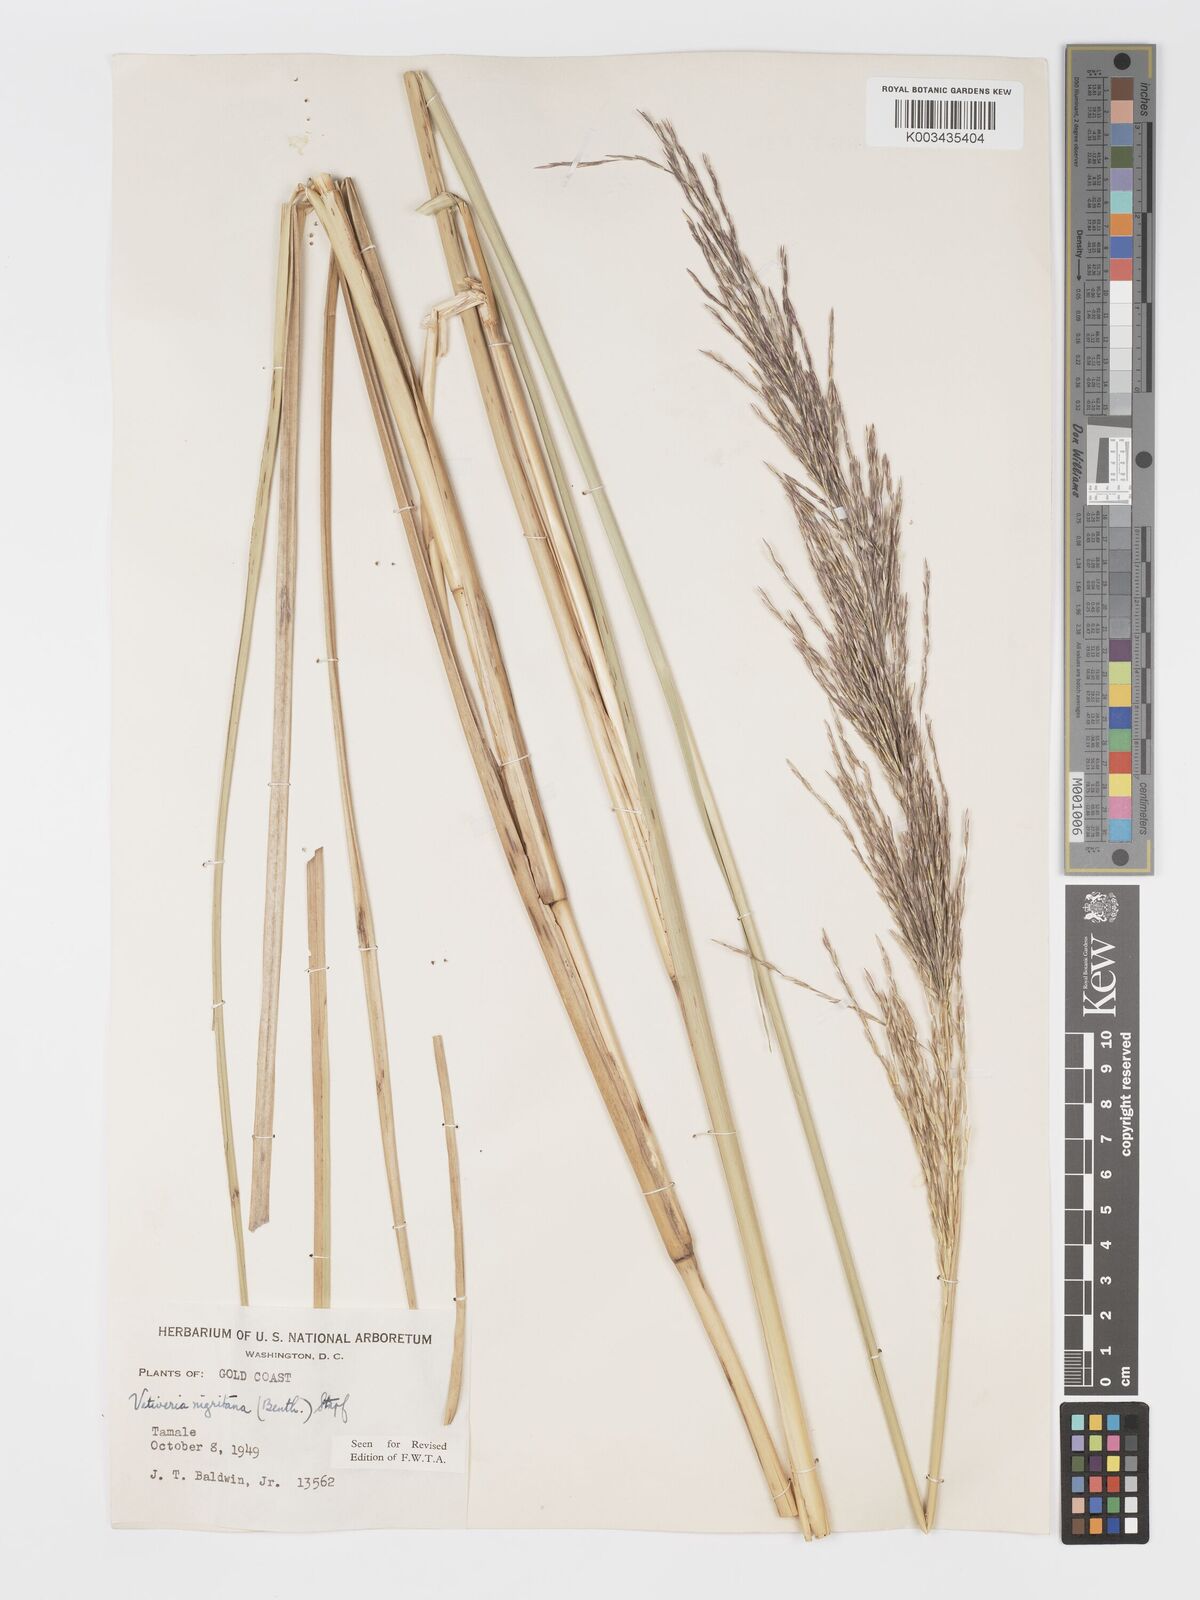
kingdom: Plantae
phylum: Tracheophyta
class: Liliopsida
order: Poales
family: Poaceae
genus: Chrysopogon
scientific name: Chrysopogon nigritanus
